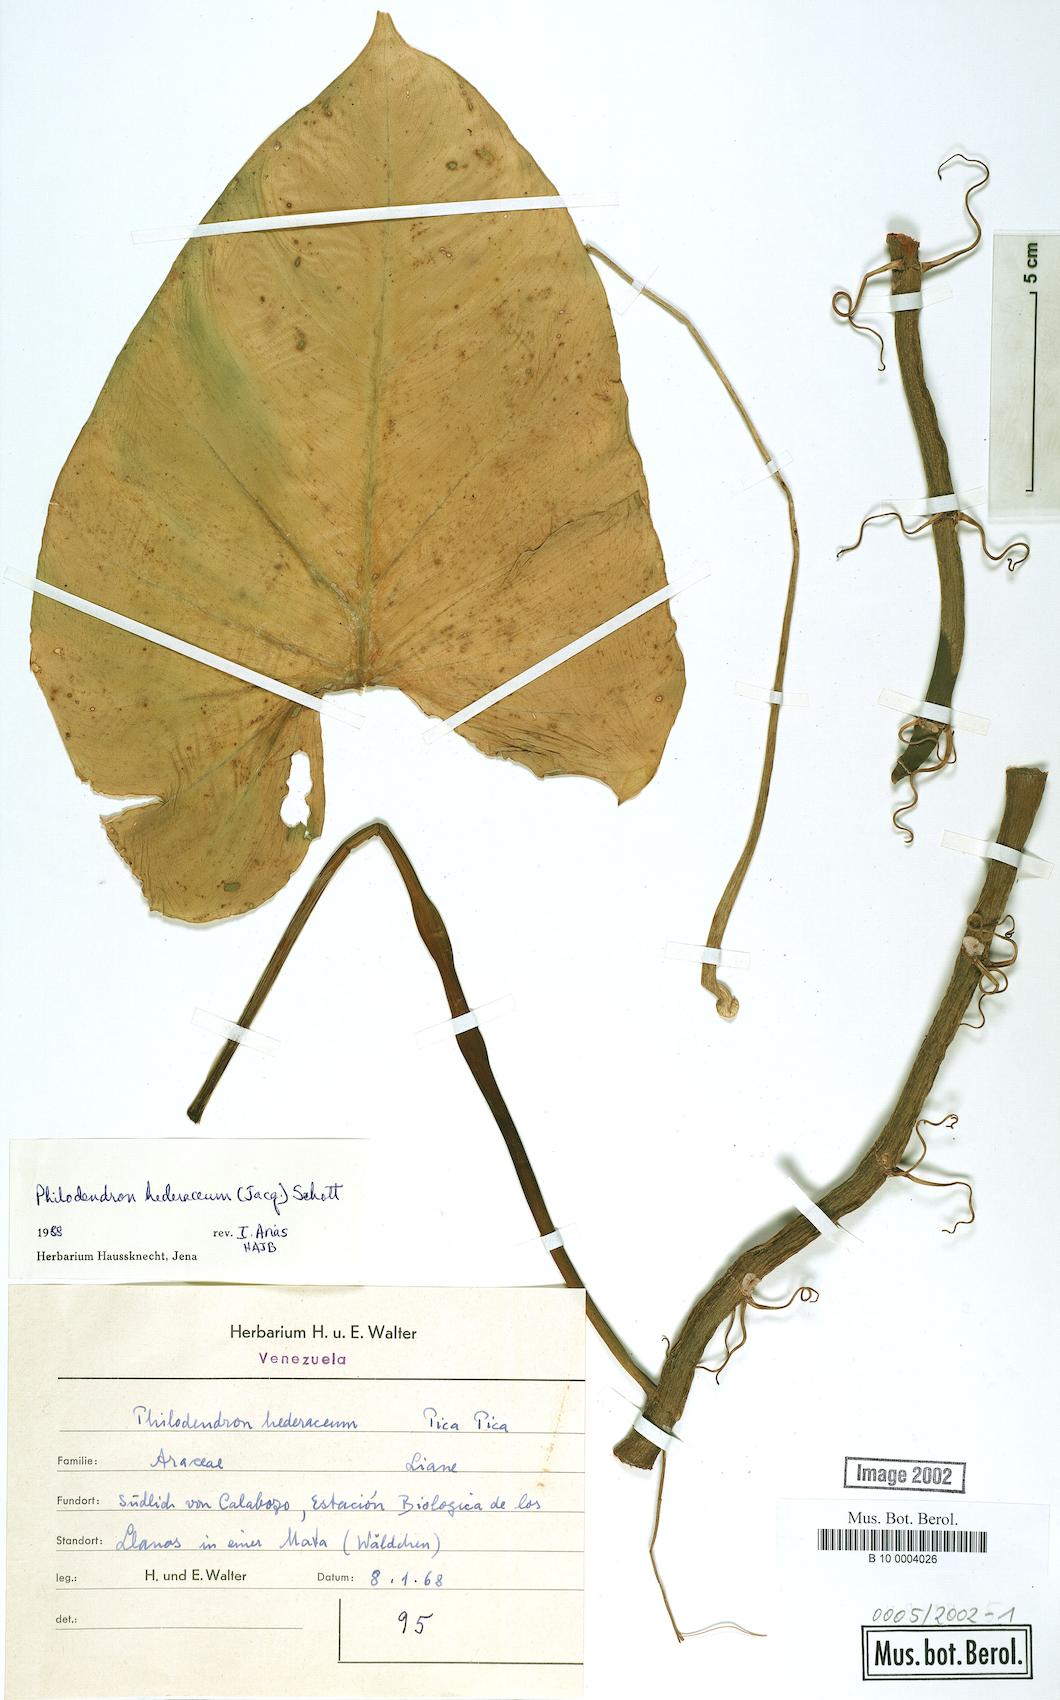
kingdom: Plantae
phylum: Tracheophyta
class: Liliopsida
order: Alismatales
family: Araceae
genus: Philodendron
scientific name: Philodendron hederaceum
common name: Vilevine
